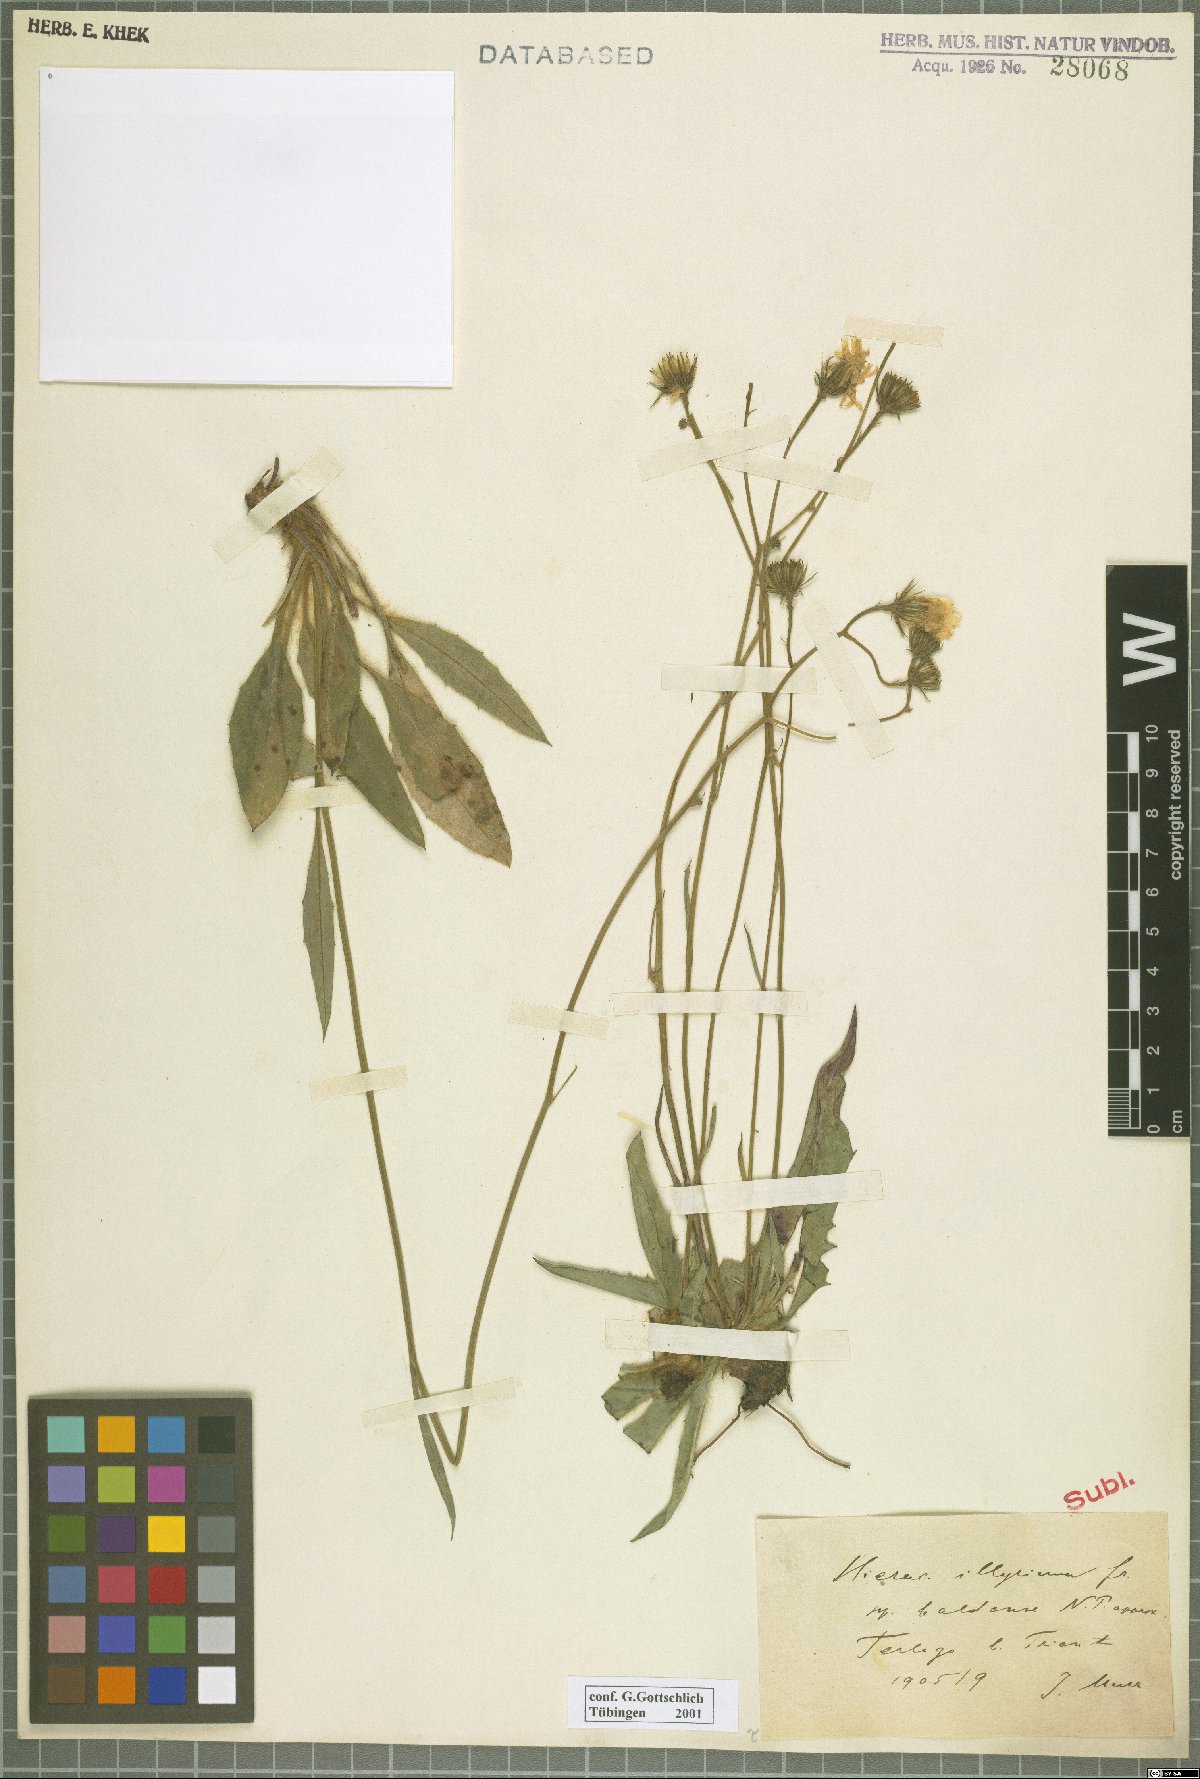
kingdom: Plantae
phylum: Tracheophyta
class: Magnoliopsida
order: Asterales
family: Asteraceae
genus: Hieracium
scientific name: Hieracium calcareum
